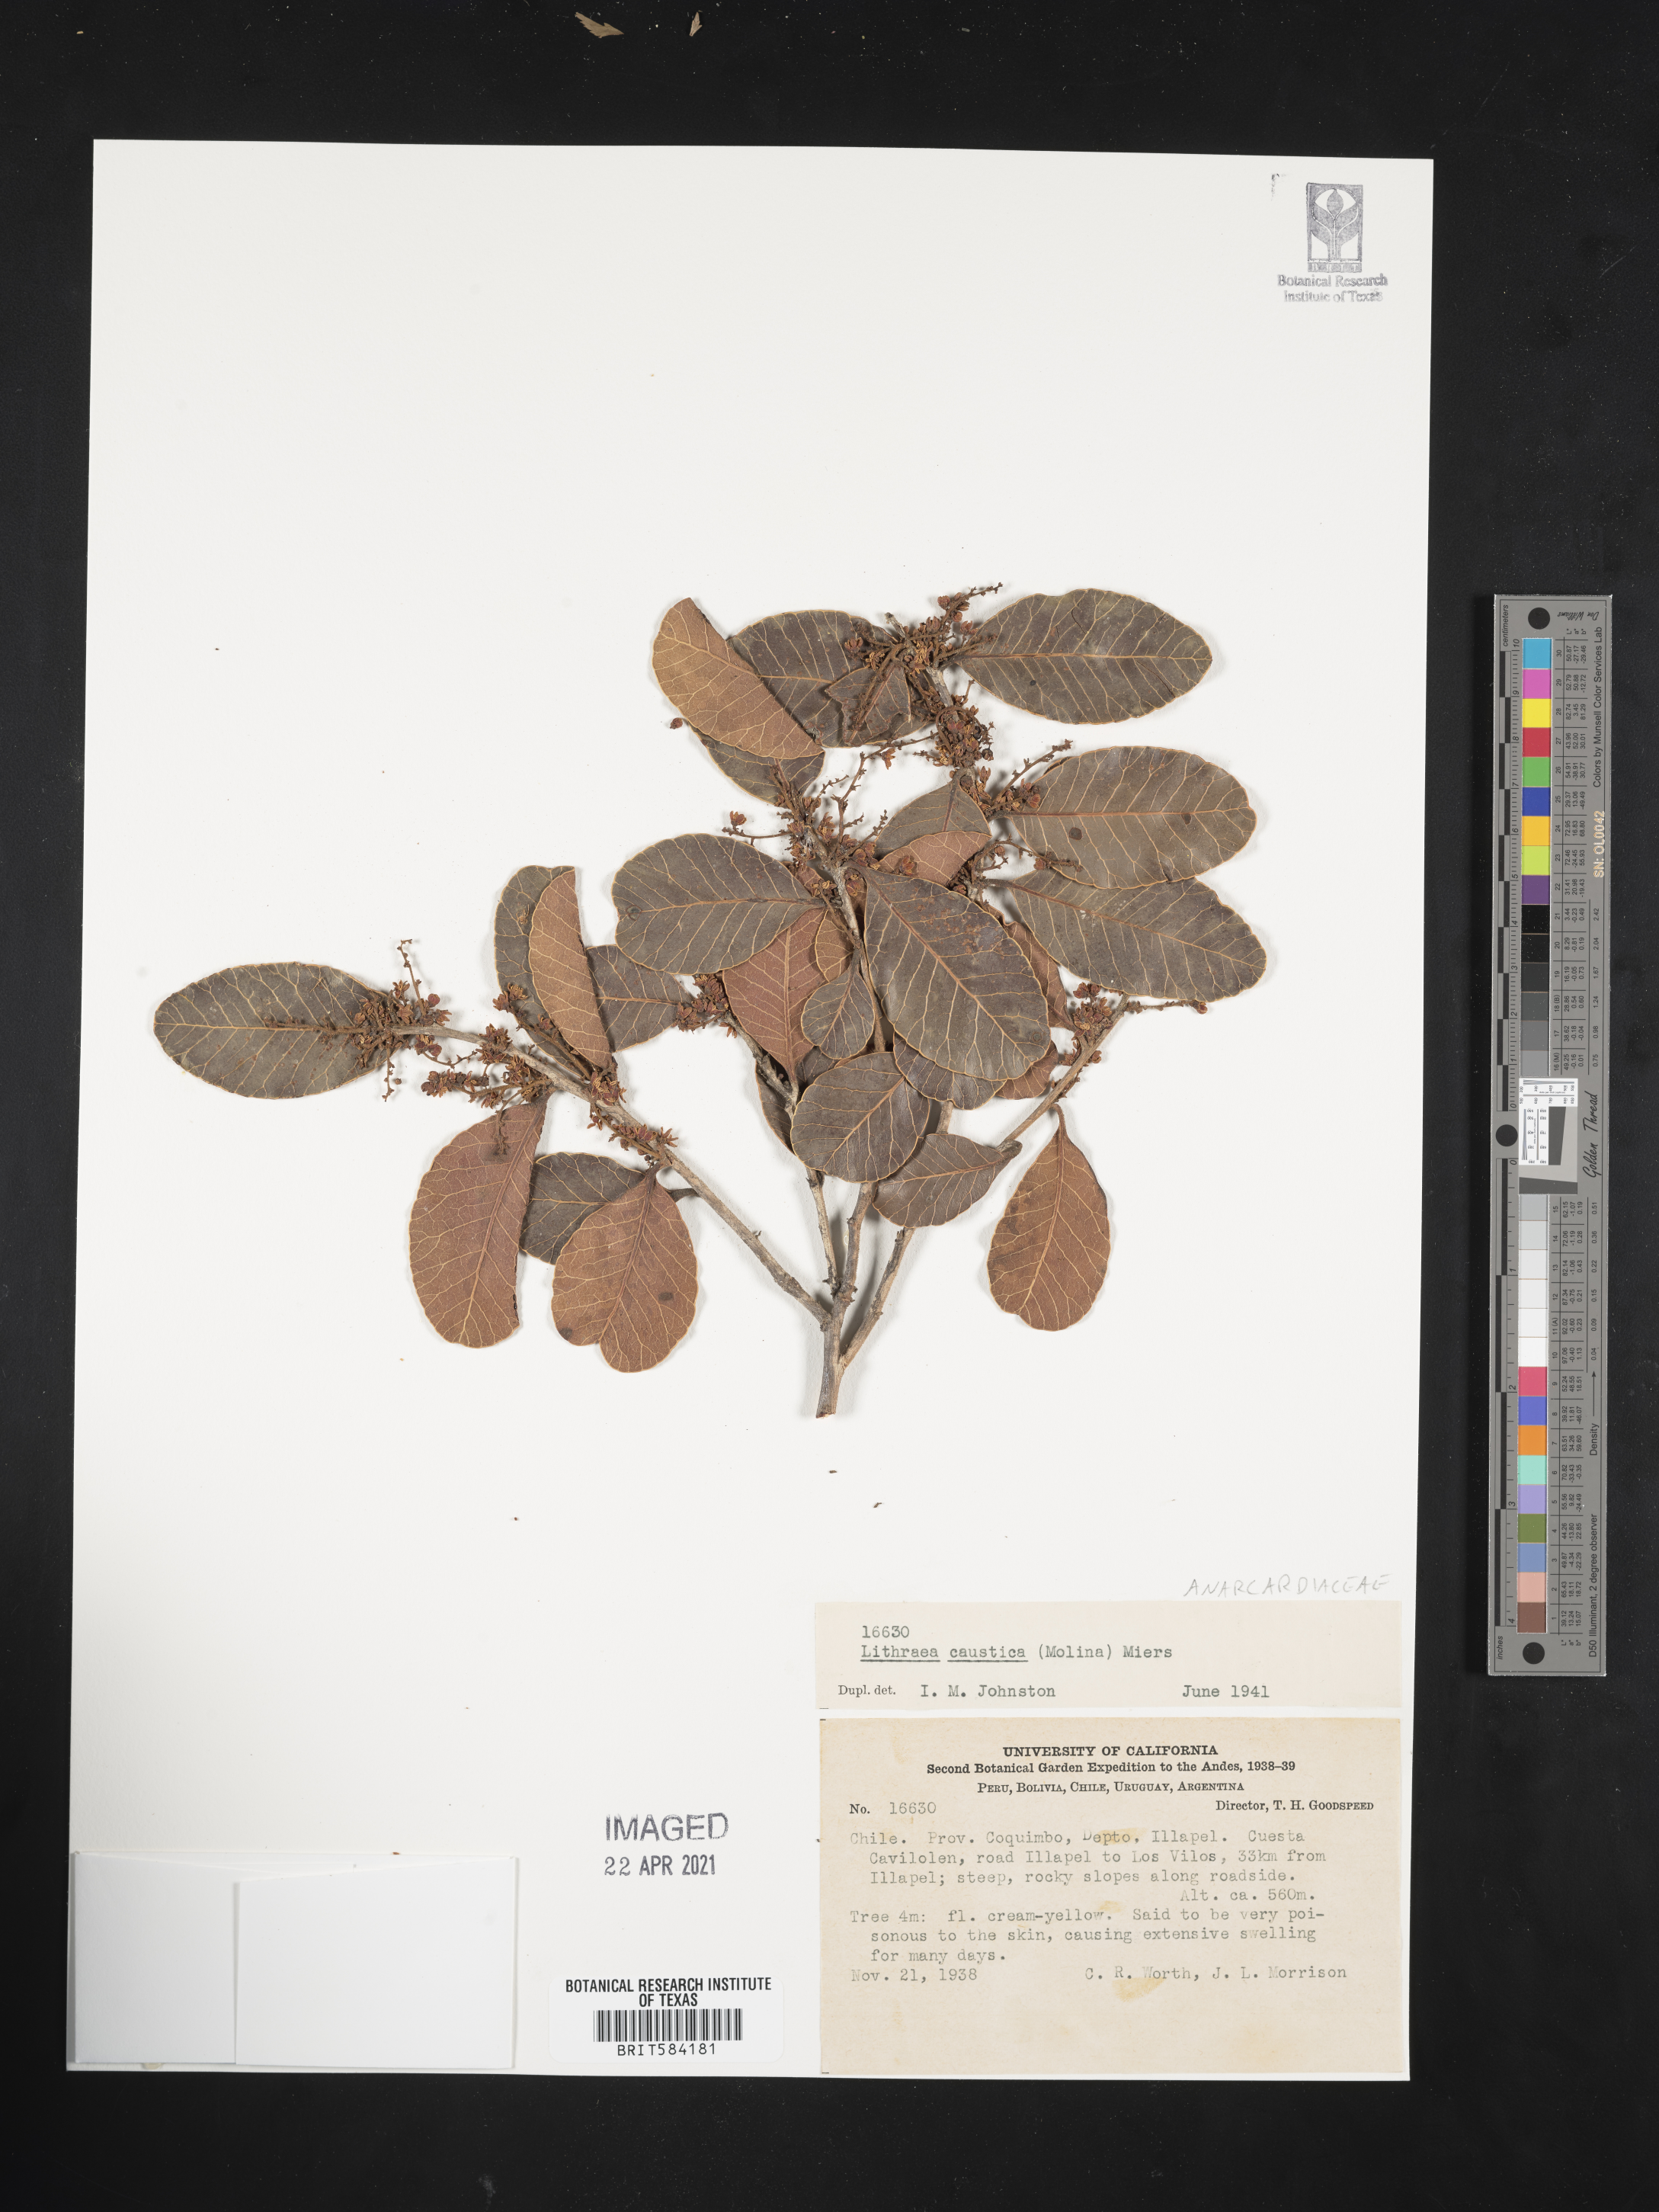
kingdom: Plantae
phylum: Tracheophyta
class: Magnoliopsida
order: Sapindales
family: Anacardiaceae
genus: Lithraea
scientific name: Lithraea caustica
